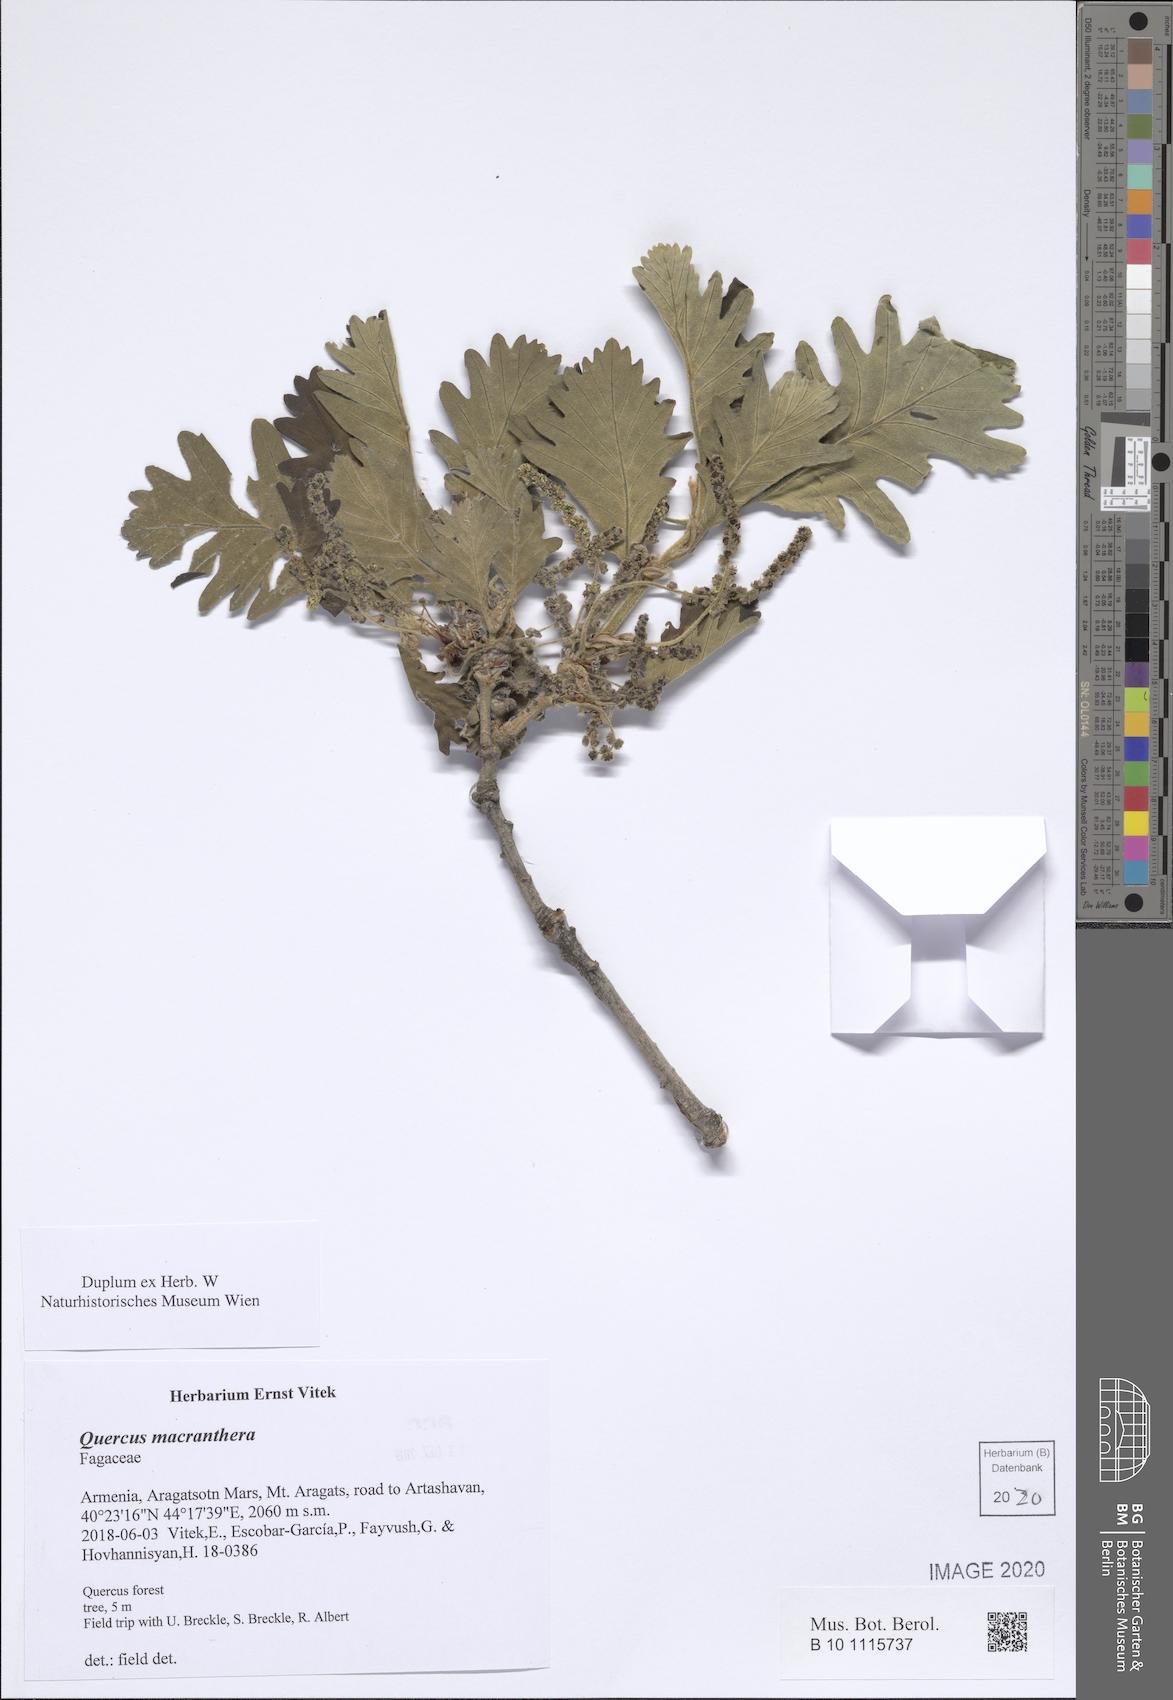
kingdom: Plantae
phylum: Tracheophyta
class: Magnoliopsida
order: Fagales
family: Fagaceae
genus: Quercus
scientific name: Quercus macranthera
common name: Caucasian oak
